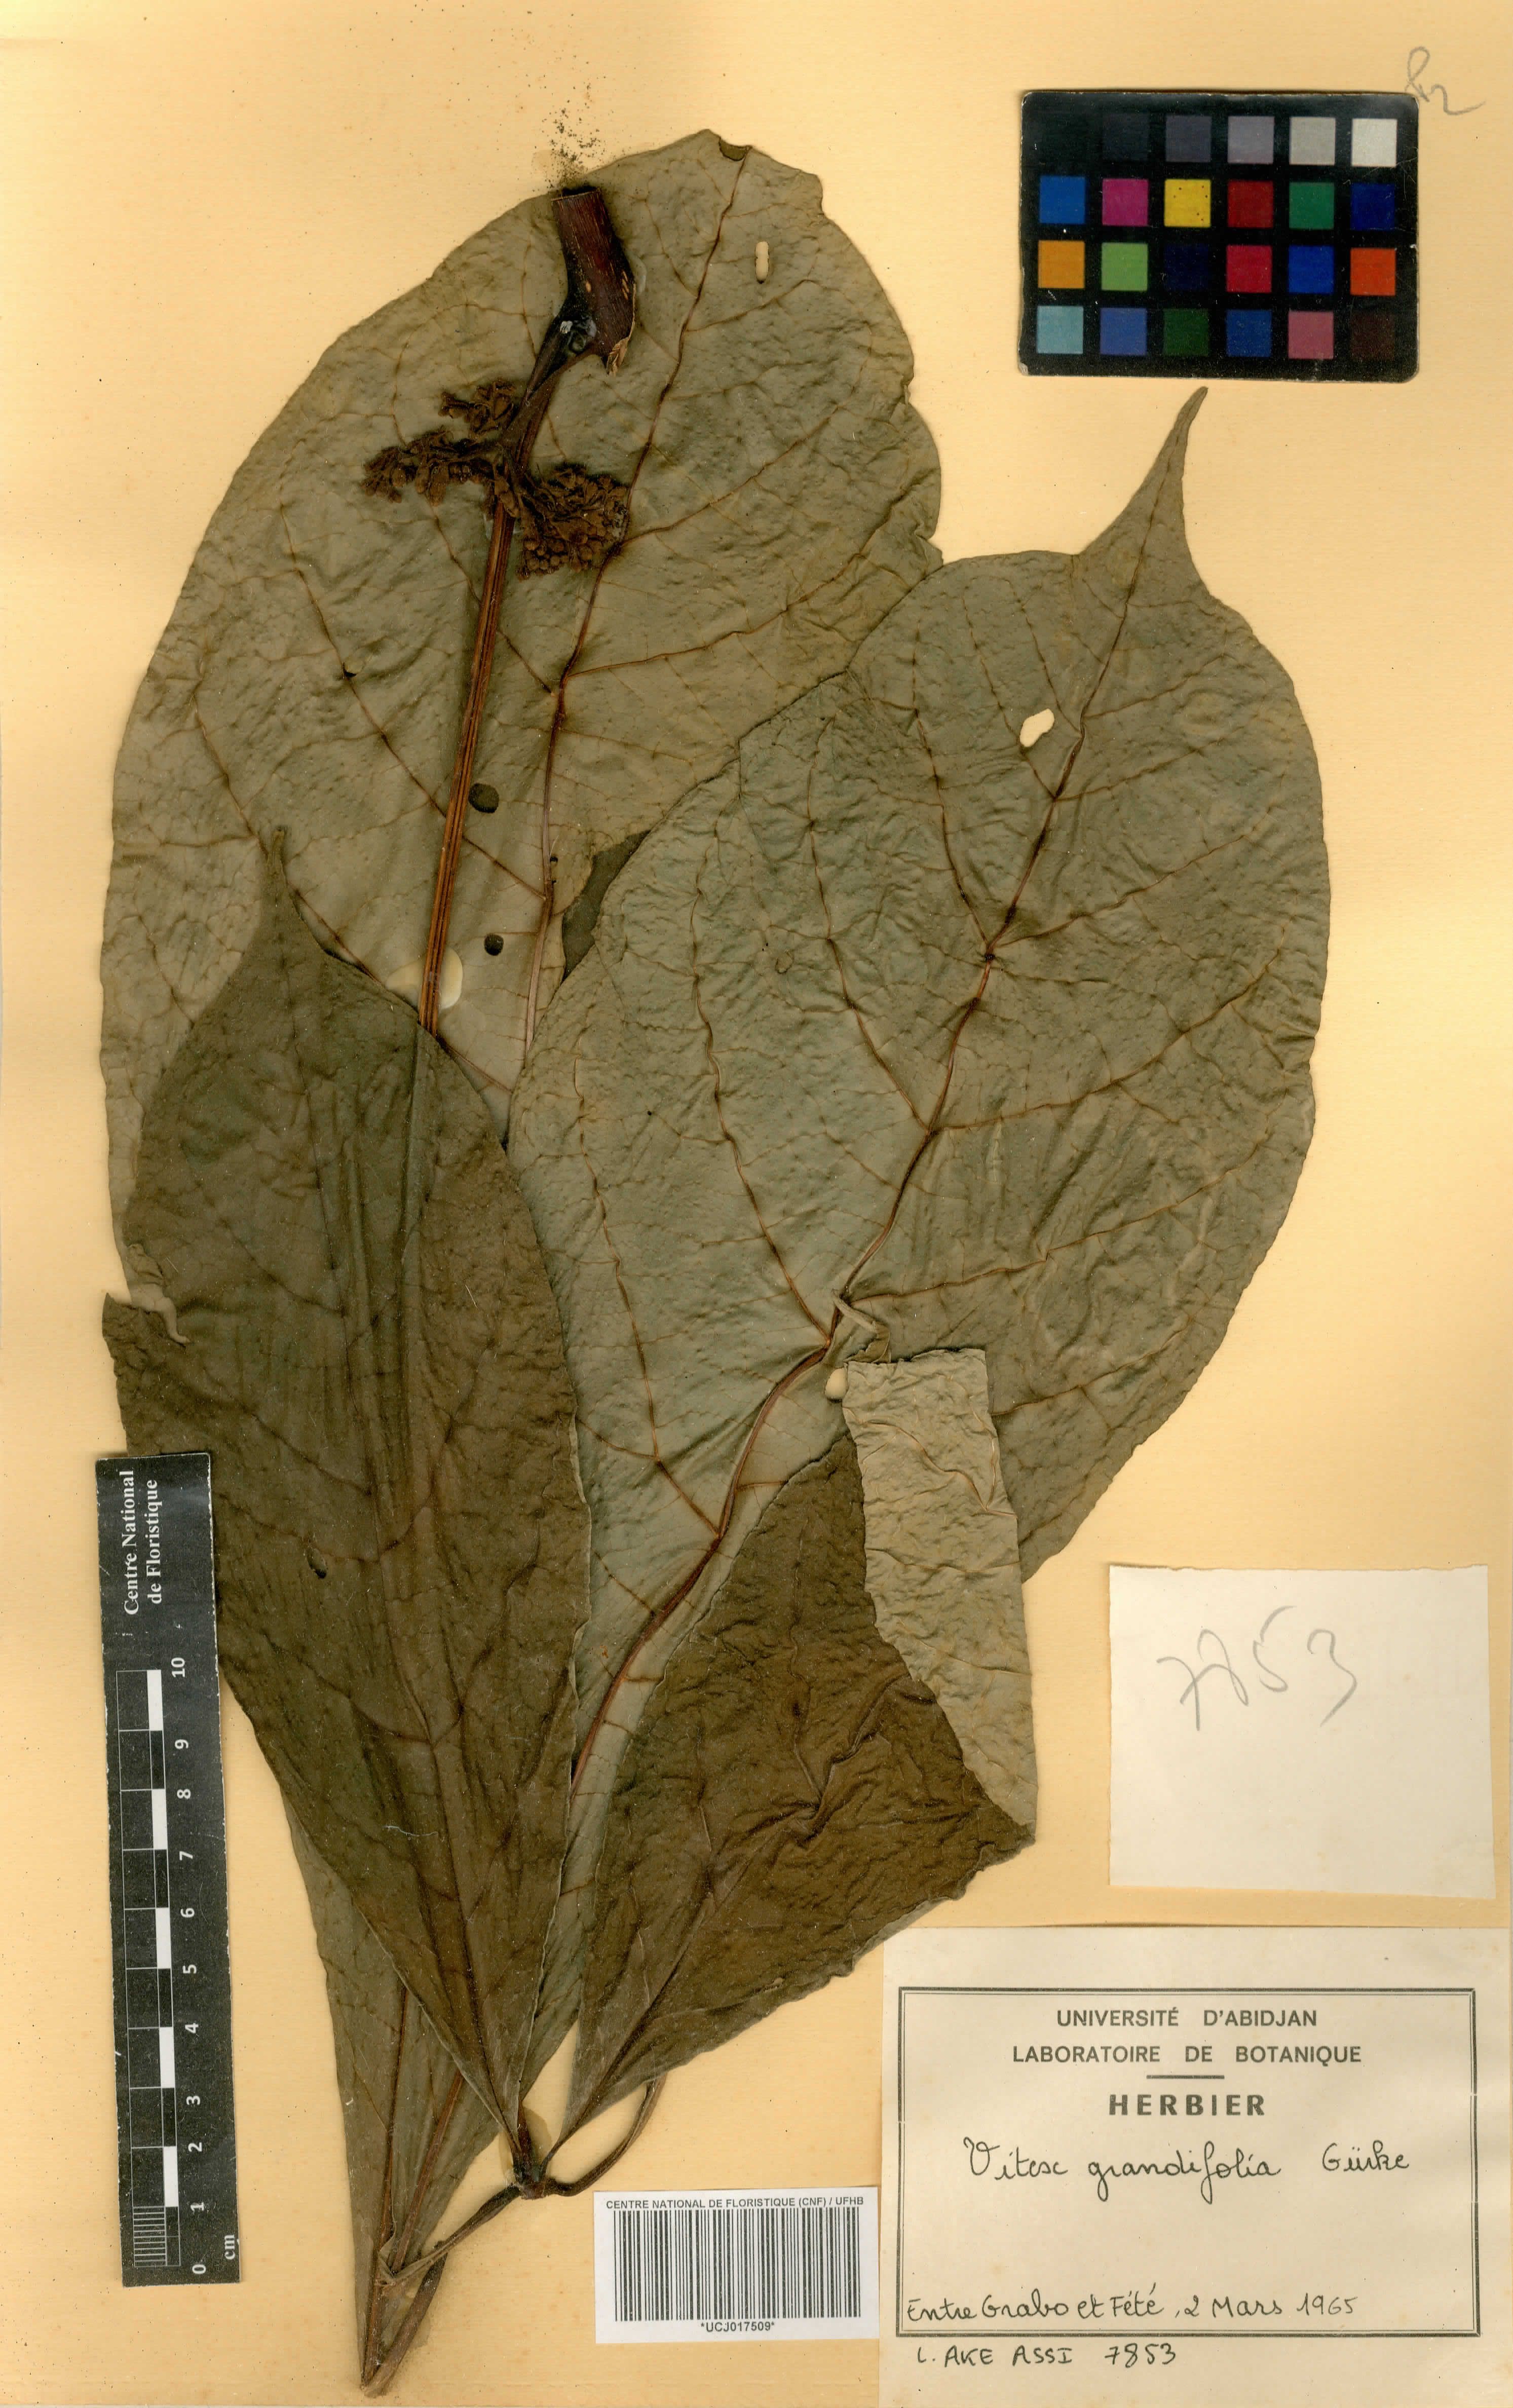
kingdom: Plantae
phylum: Tracheophyta
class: Magnoliopsida
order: Lamiales
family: Lamiaceae
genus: Vitex
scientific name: Vitex grandifolia
